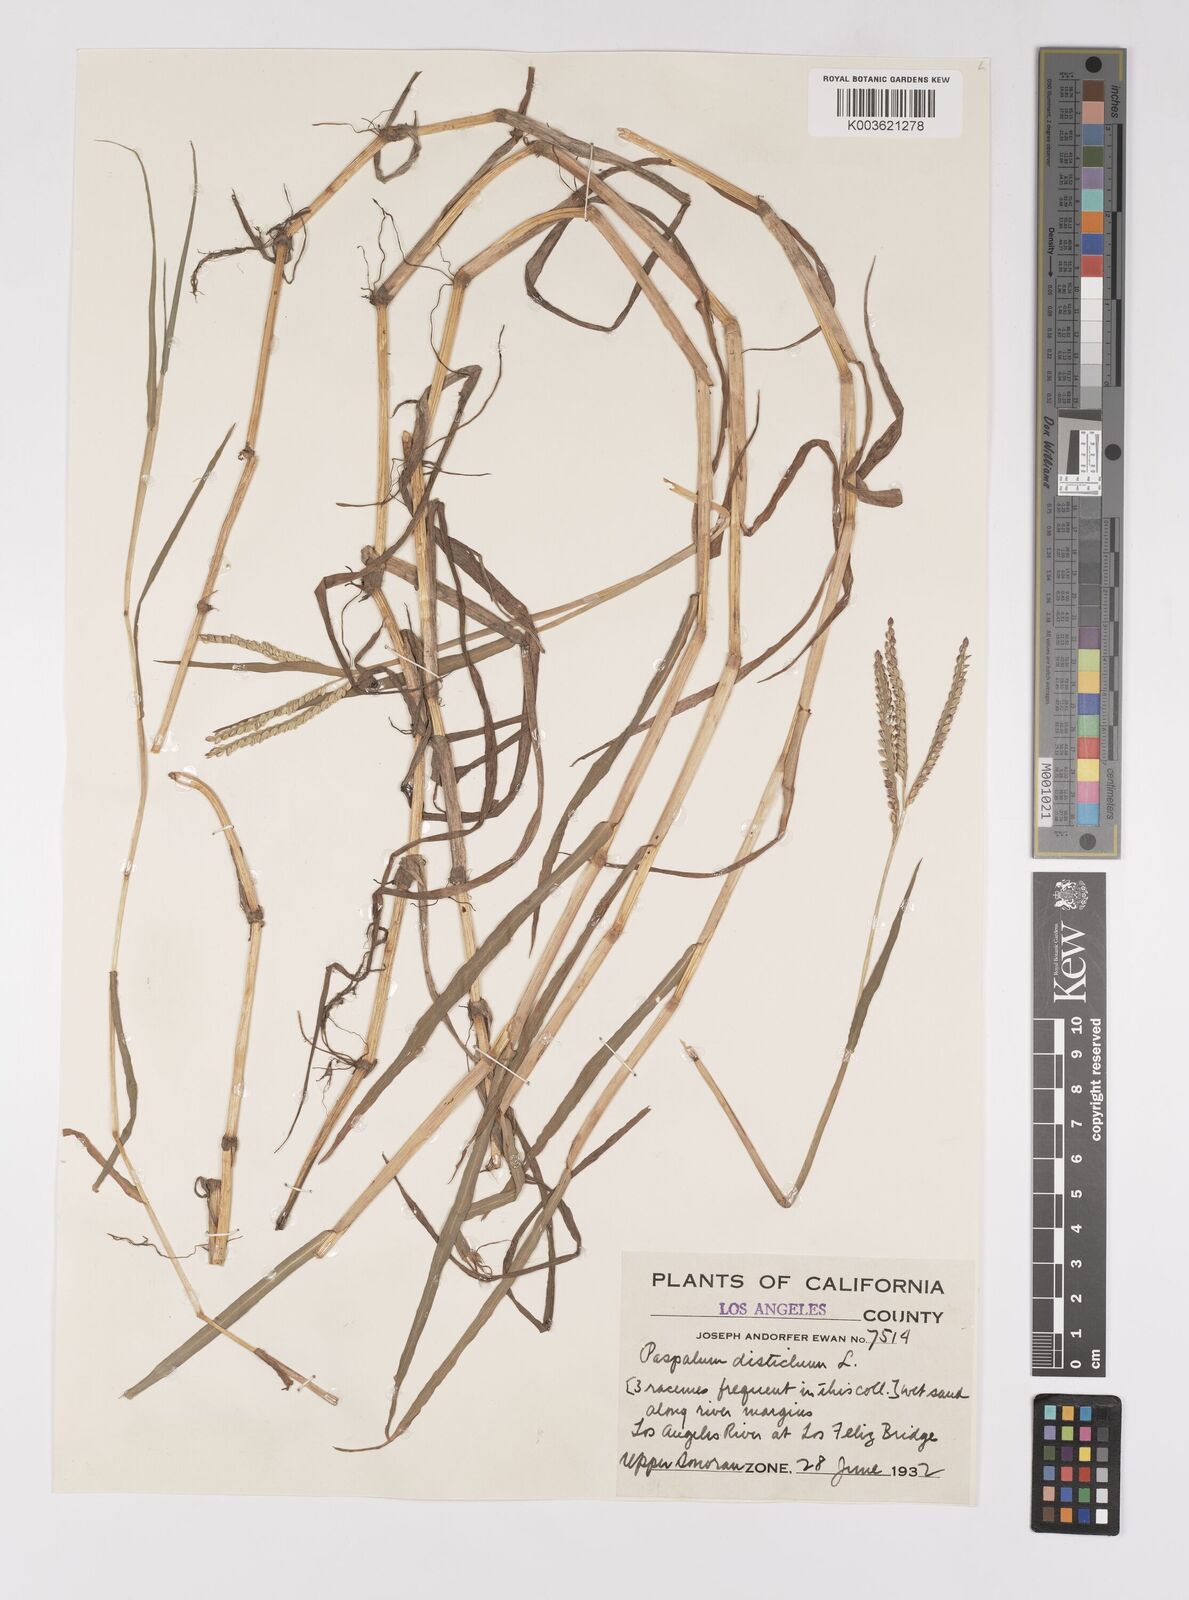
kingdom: Plantae
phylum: Tracheophyta
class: Liliopsida
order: Poales
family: Poaceae
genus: Paspalum
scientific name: Paspalum distichum
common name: Knotgrass
